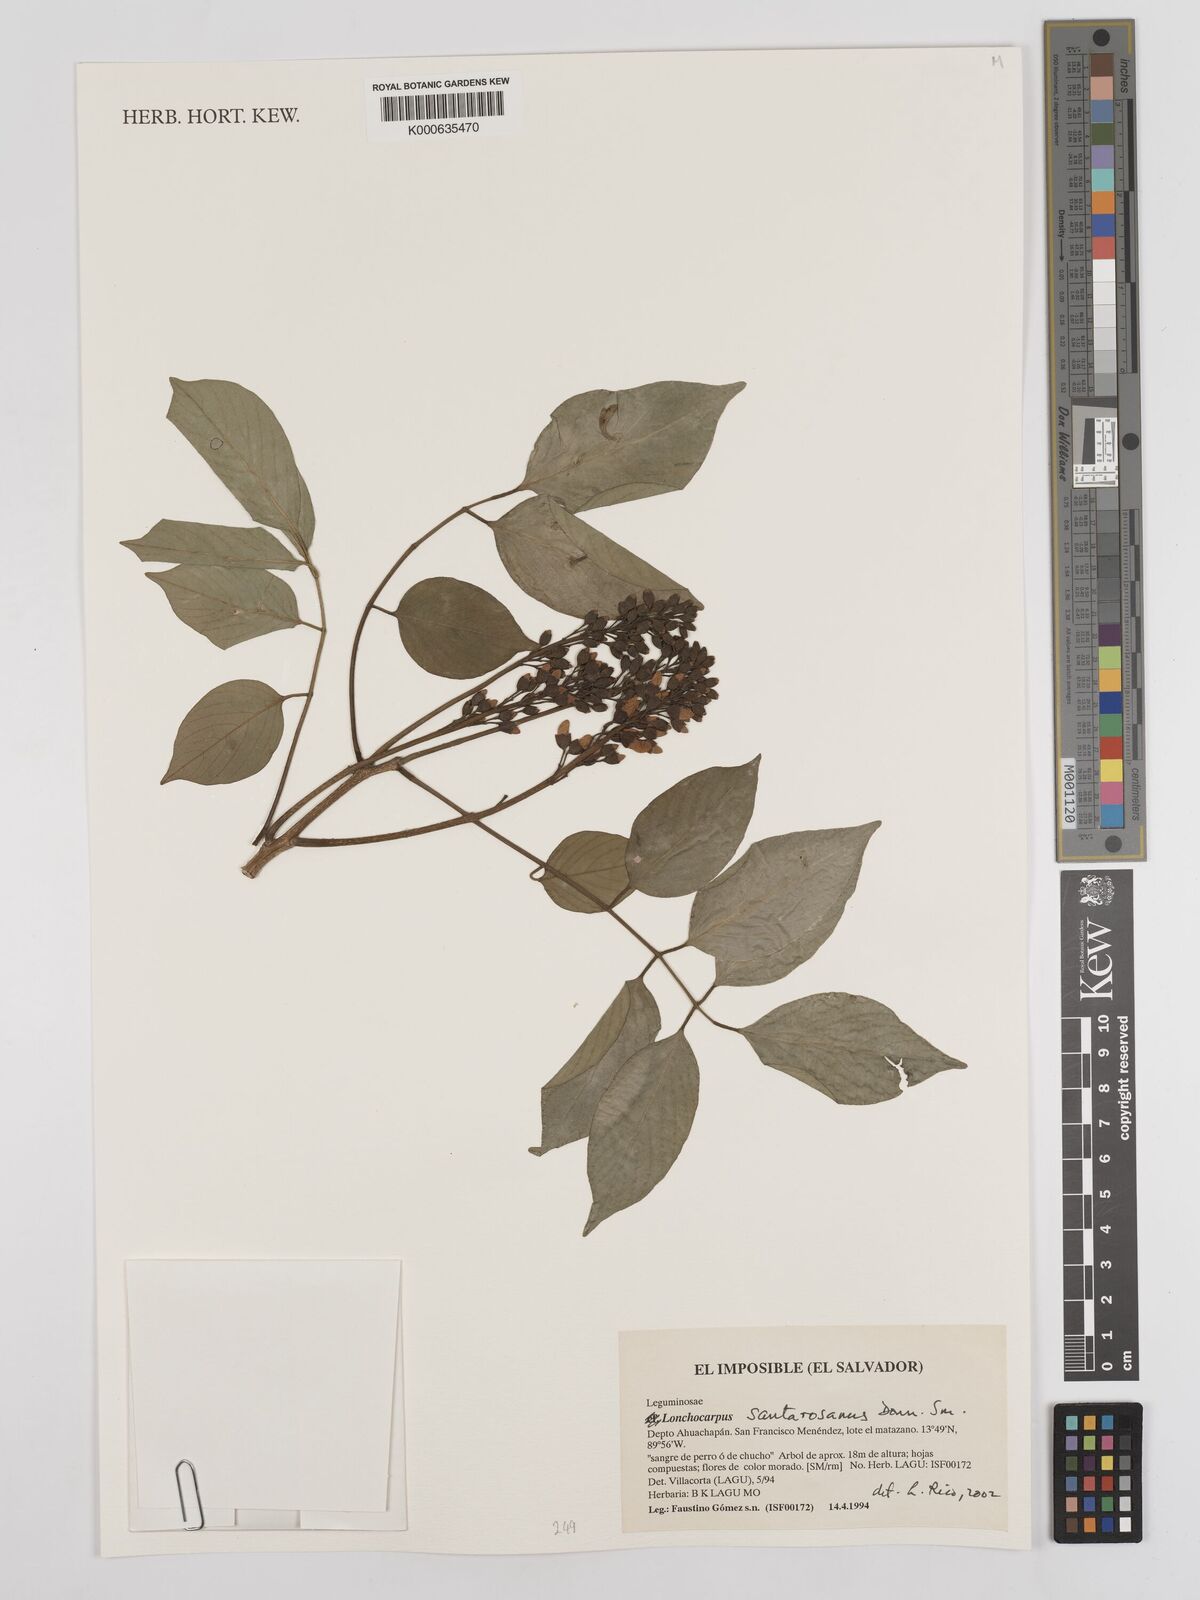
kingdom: Plantae
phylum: Tracheophyta
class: Magnoliopsida
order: Fabales
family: Fabaceae
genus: Lonchocarpus
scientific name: Lonchocarpus santarosanus
